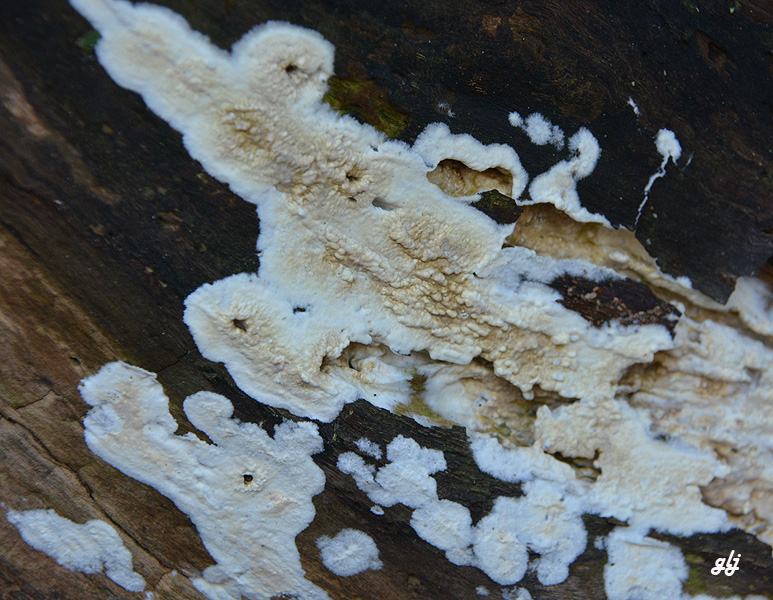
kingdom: Fungi
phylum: Basidiomycota
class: Agaricomycetes
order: Corticiales
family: Corticiaceae
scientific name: Corticiaceae
